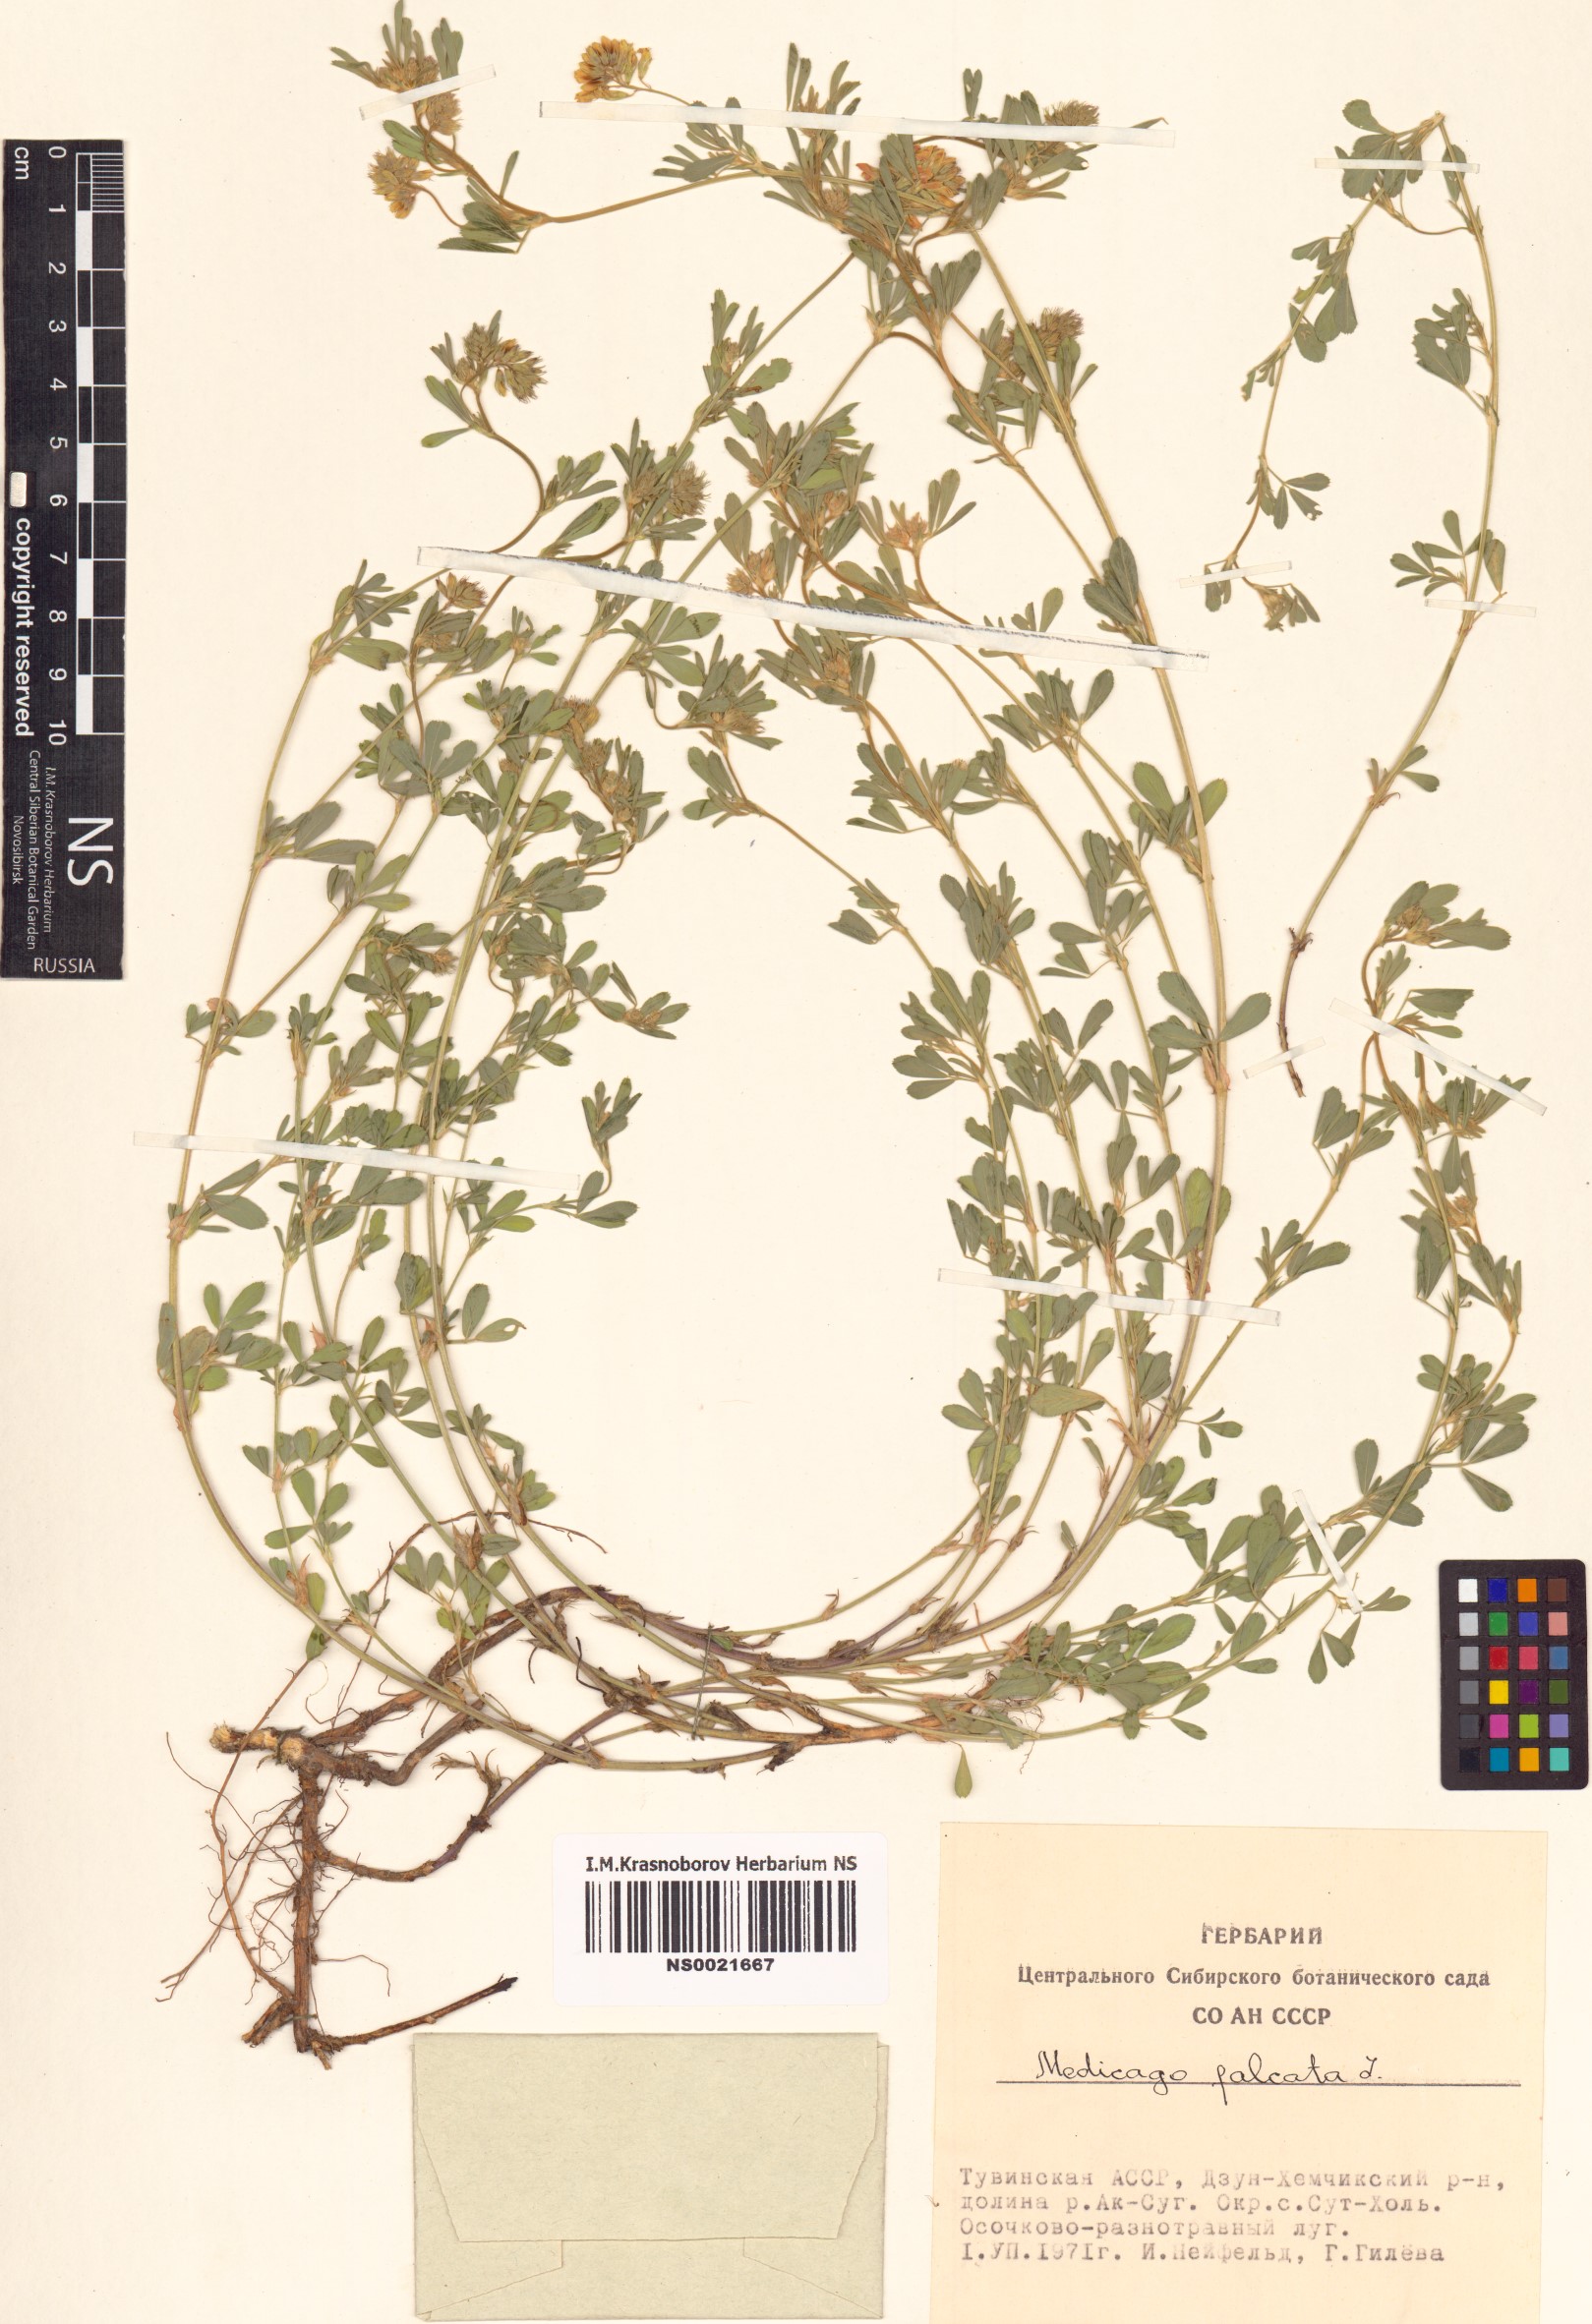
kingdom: Plantae
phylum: Tracheophyta
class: Magnoliopsida
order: Fabales
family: Fabaceae
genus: Medicago
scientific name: Medicago falcata
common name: Sickle medick
